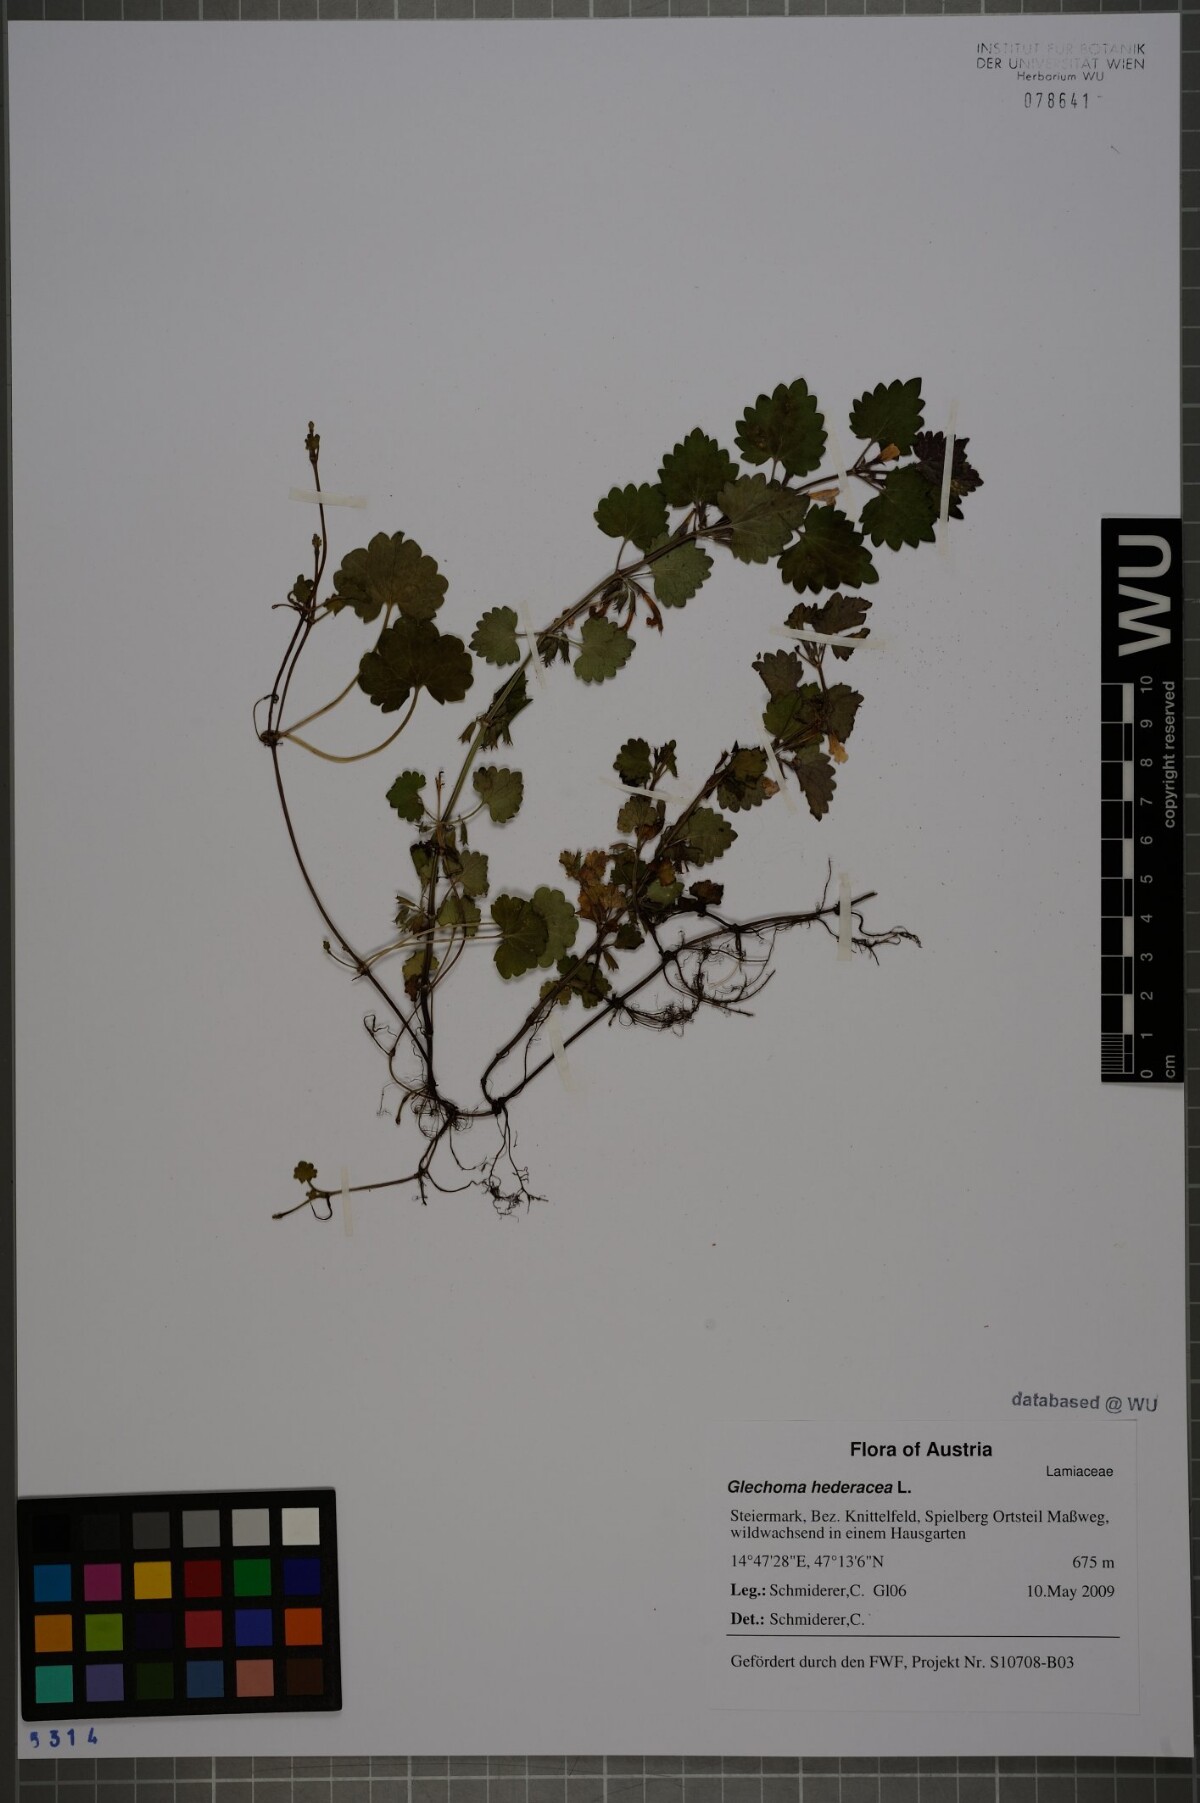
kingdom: Plantae
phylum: Tracheophyta
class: Magnoliopsida
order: Lamiales
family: Lamiaceae
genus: Glechoma
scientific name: Glechoma hederacea
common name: Ground ivy
